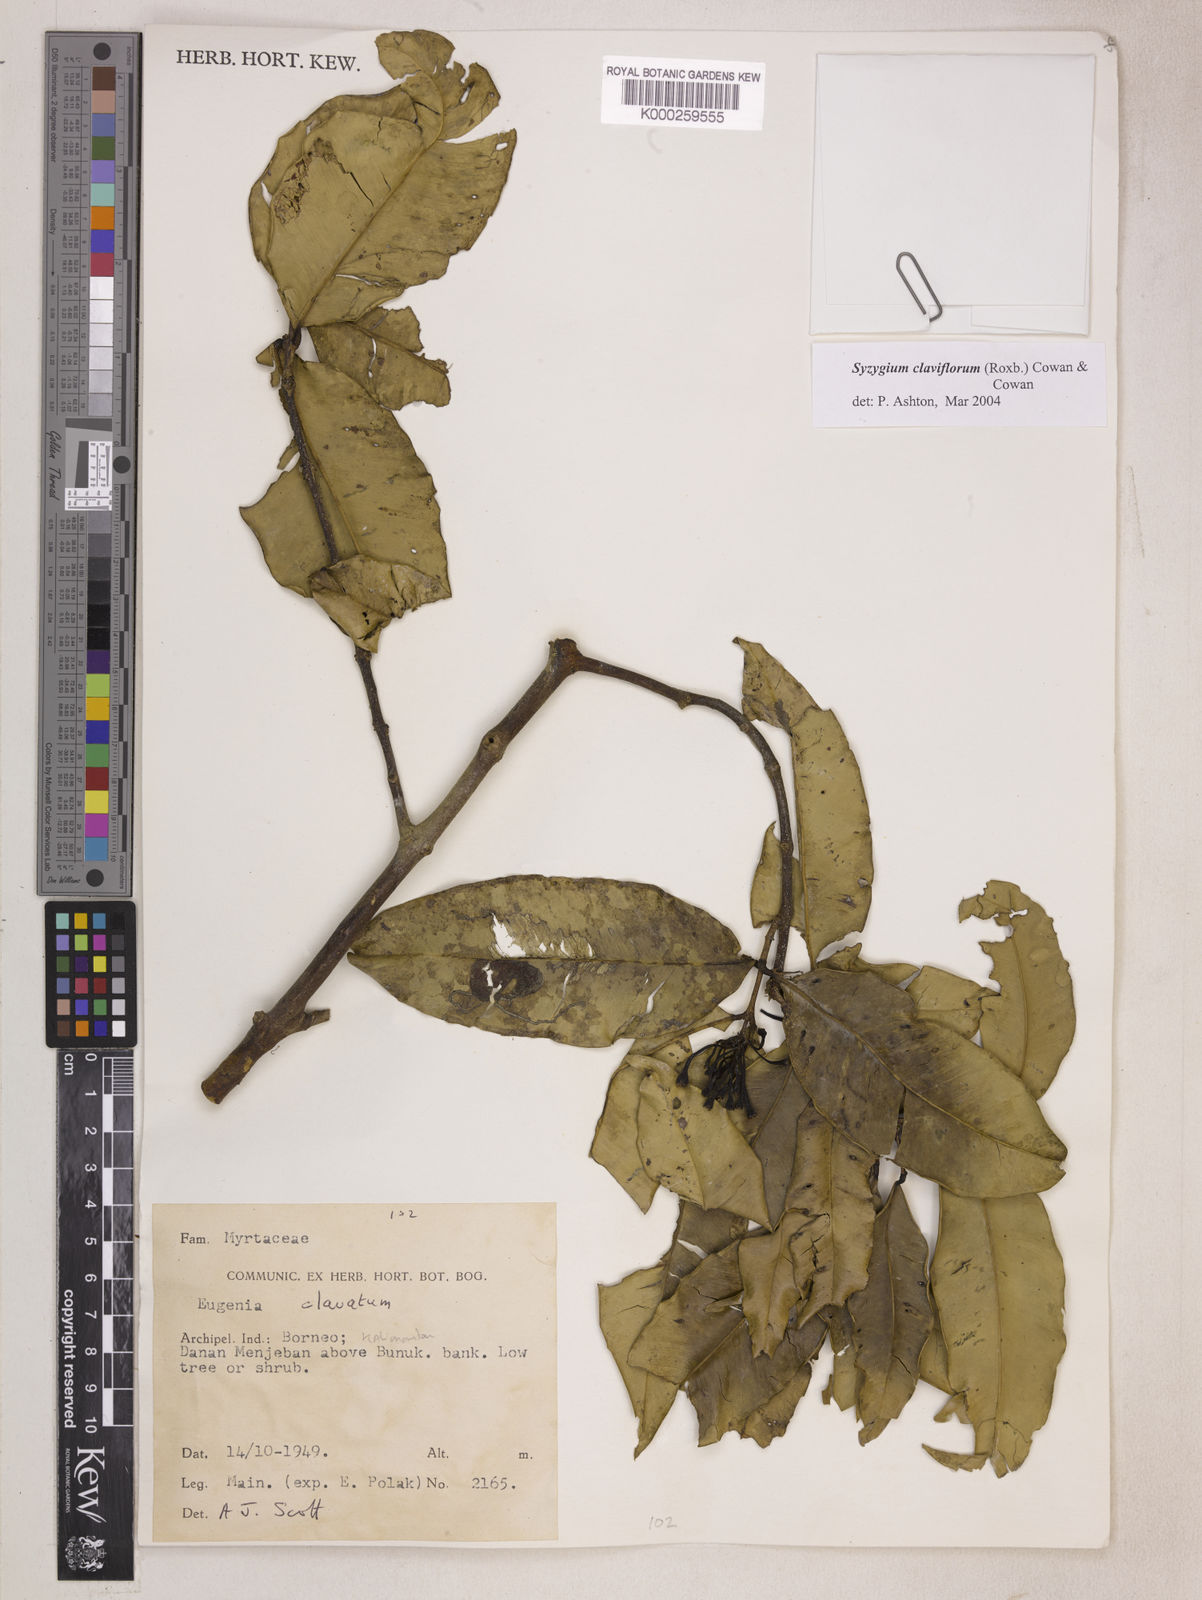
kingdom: Plantae
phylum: Tracheophyta
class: Magnoliopsida
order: Myrtales
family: Myrtaceae
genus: Syzygium
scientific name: Syzygium claviflorum
